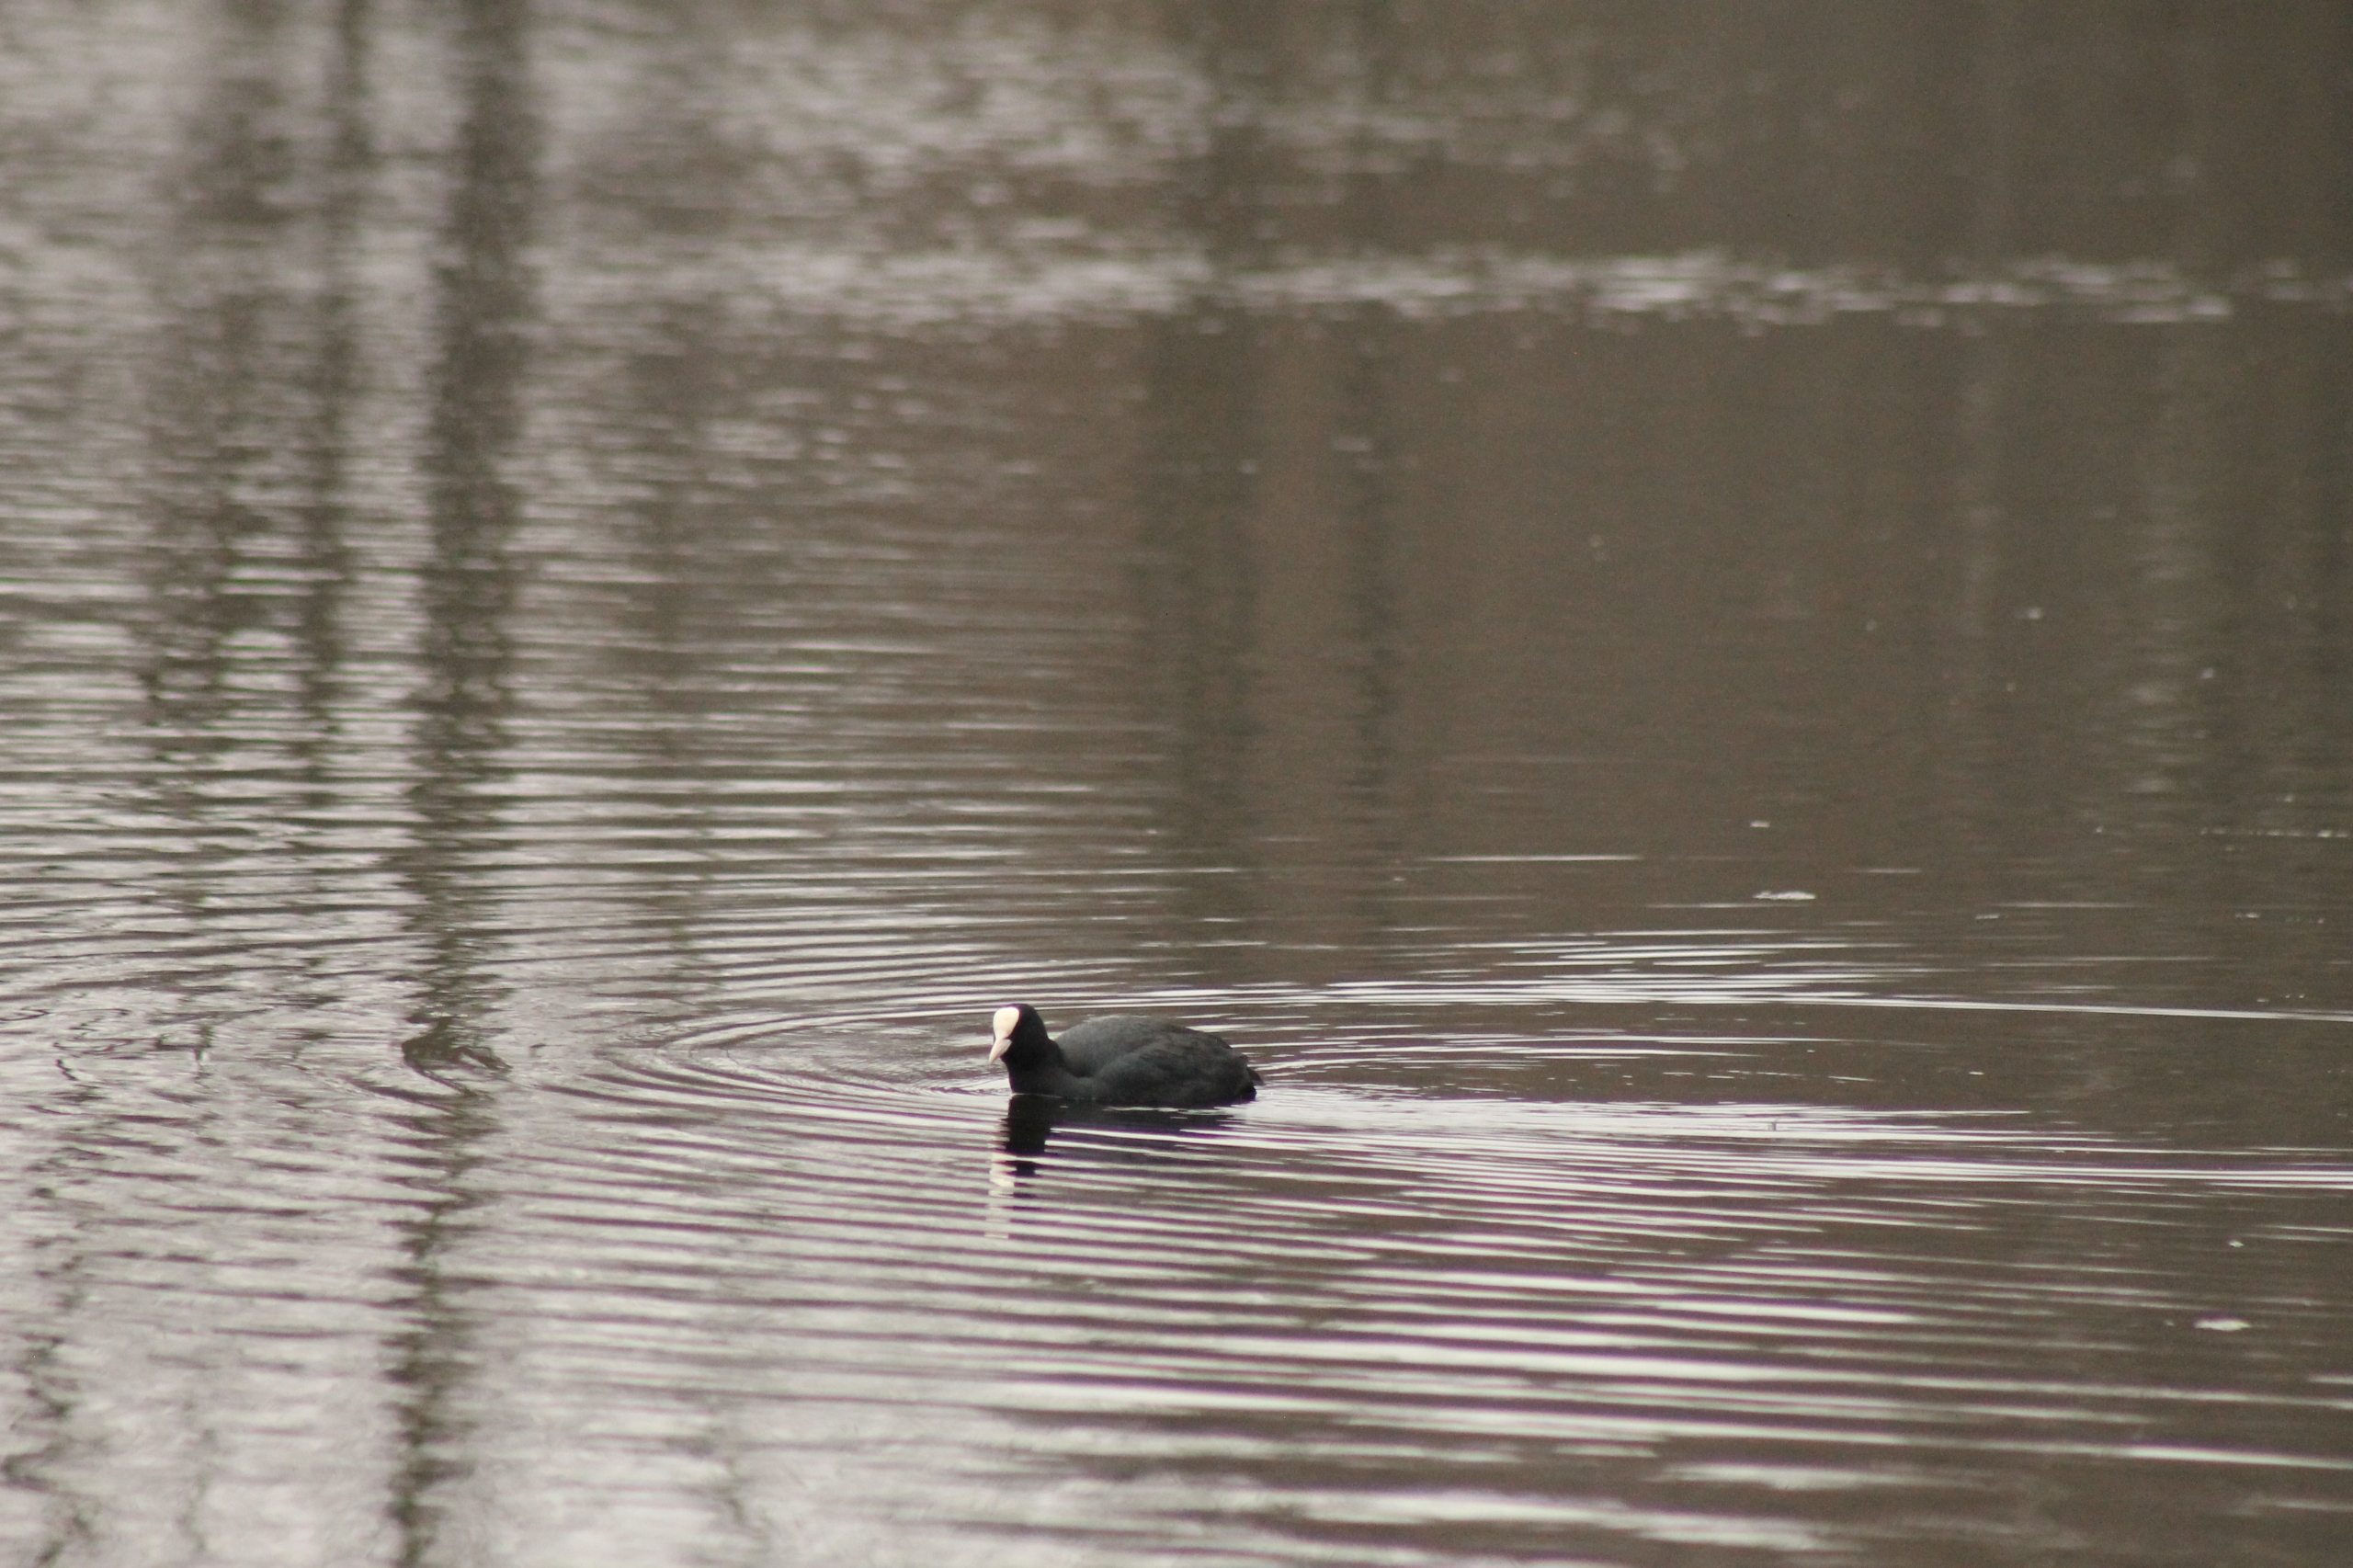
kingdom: Animalia
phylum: Chordata
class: Aves
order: Gruiformes
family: Rallidae
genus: Fulica
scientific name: Fulica atra
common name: Blishøne
